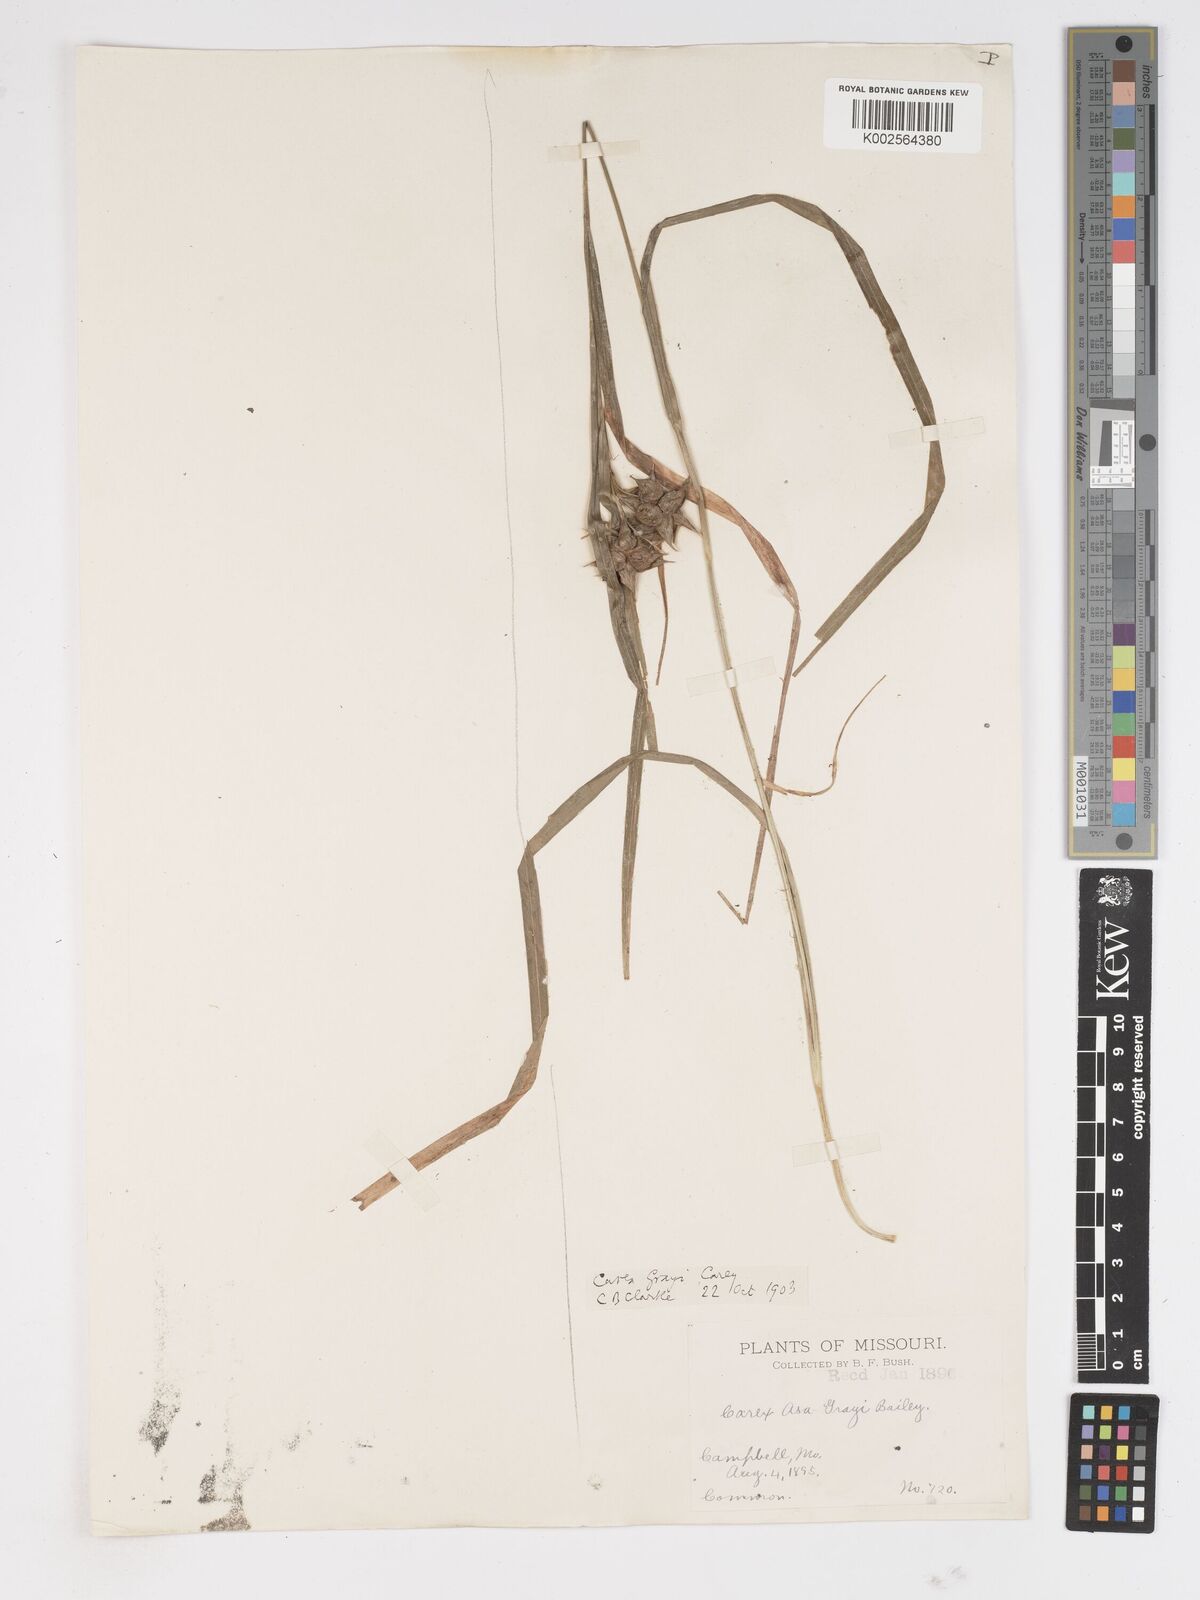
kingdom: Plantae
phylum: Tracheophyta
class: Liliopsida
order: Poales
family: Cyperaceae
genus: Carex
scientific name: Carex grayi
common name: Asa gray's sedge
